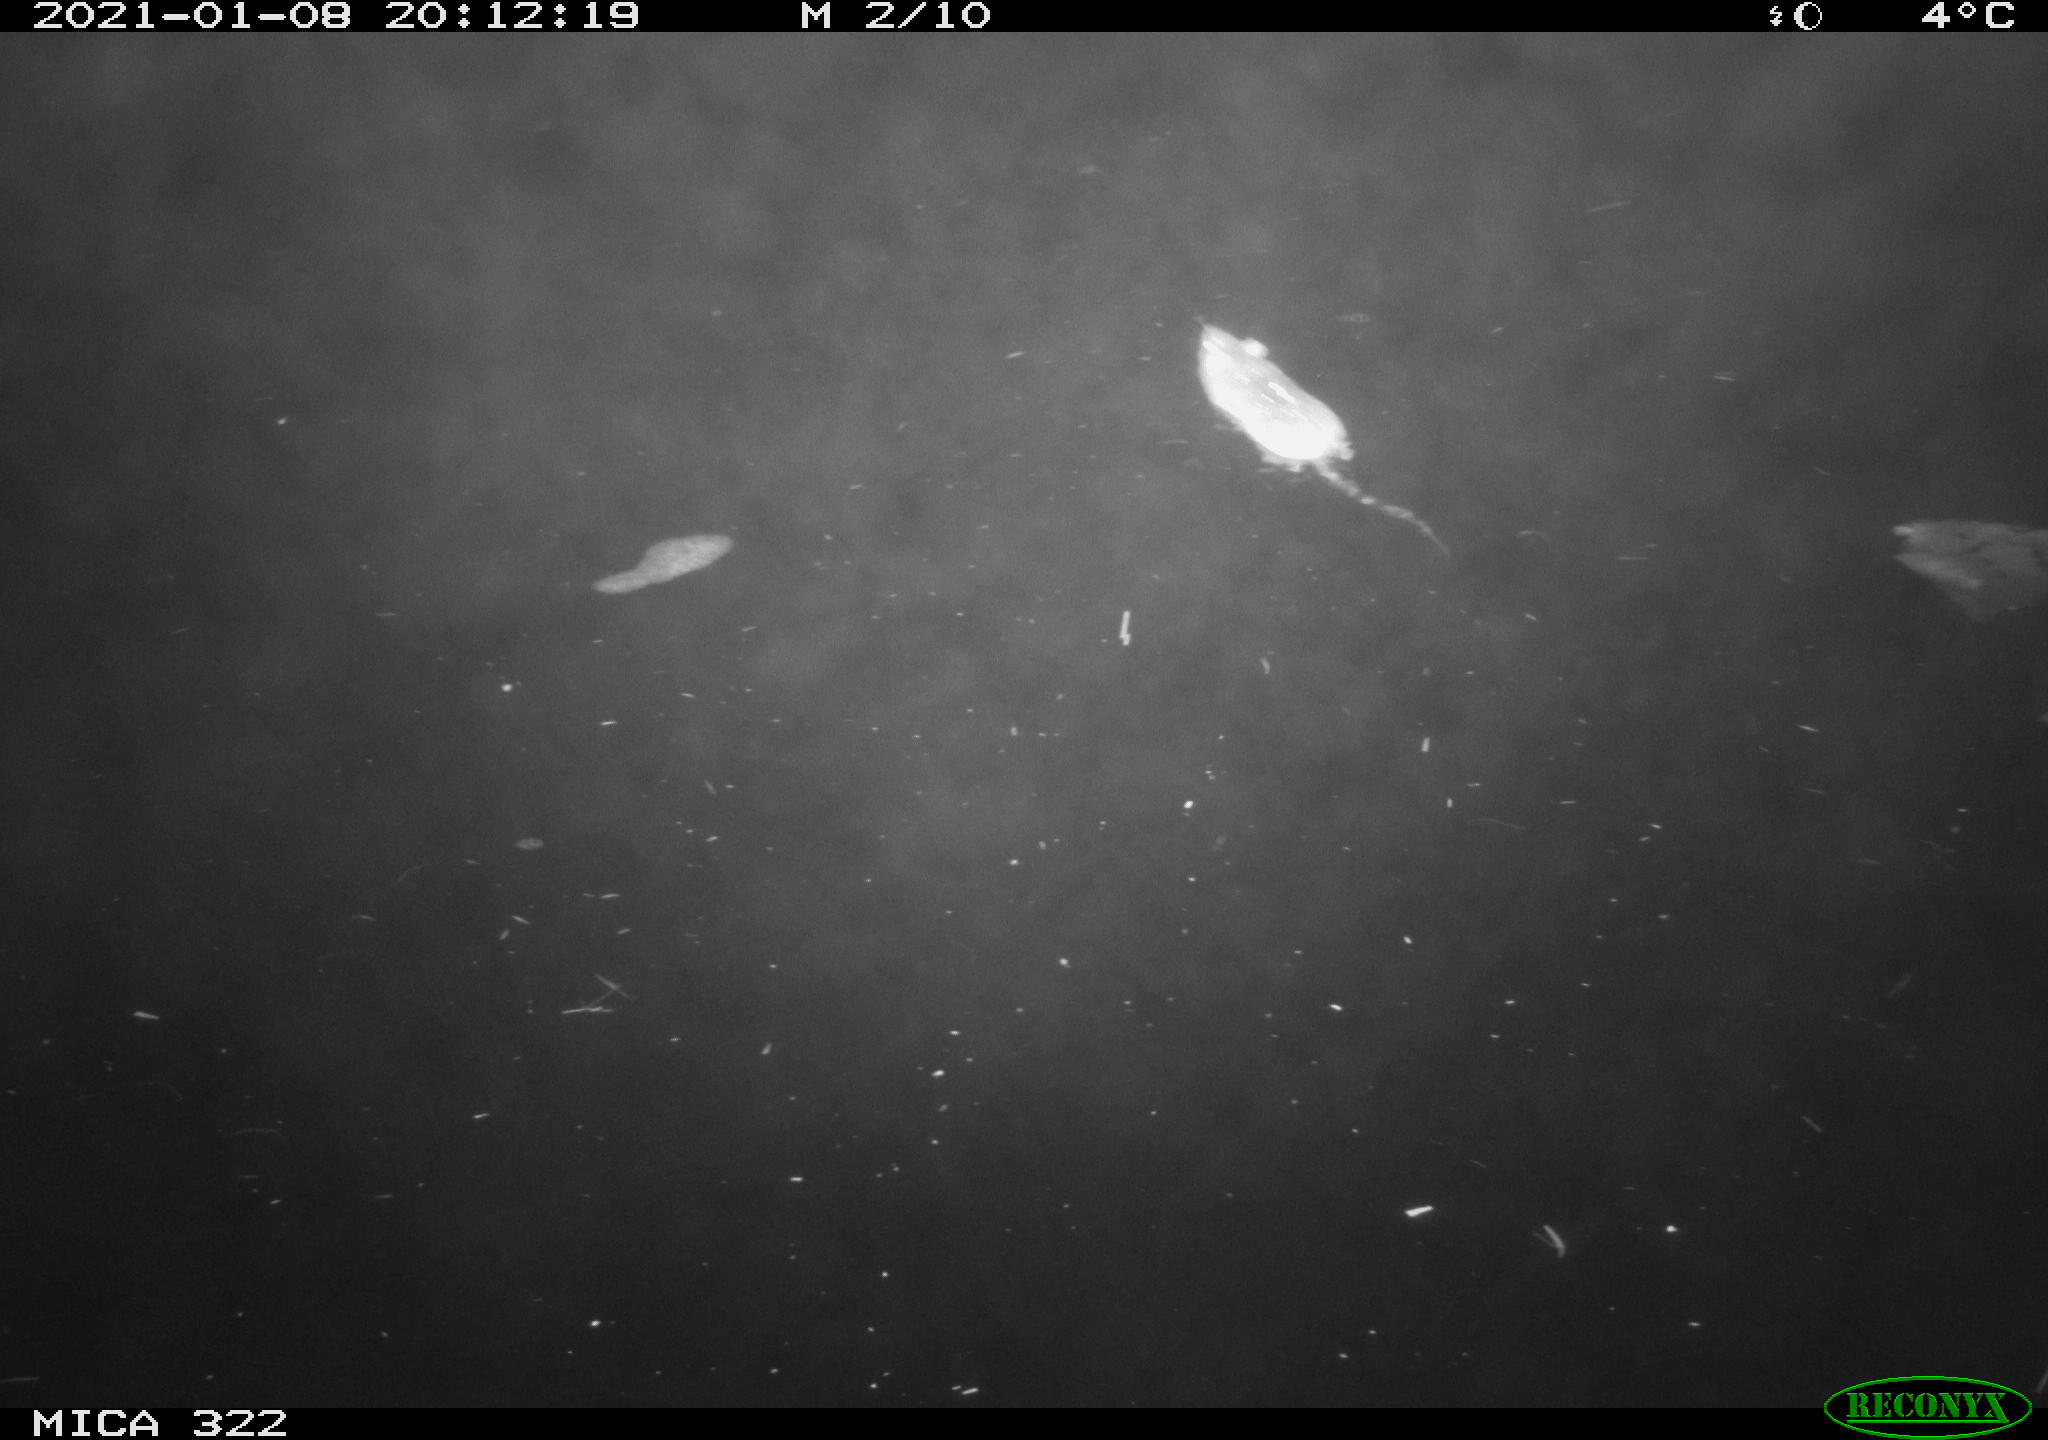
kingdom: Animalia
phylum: Chordata
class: Mammalia
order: Rodentia
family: Muridae
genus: Rattus
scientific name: Rattus norvegicus
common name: Brown rat
